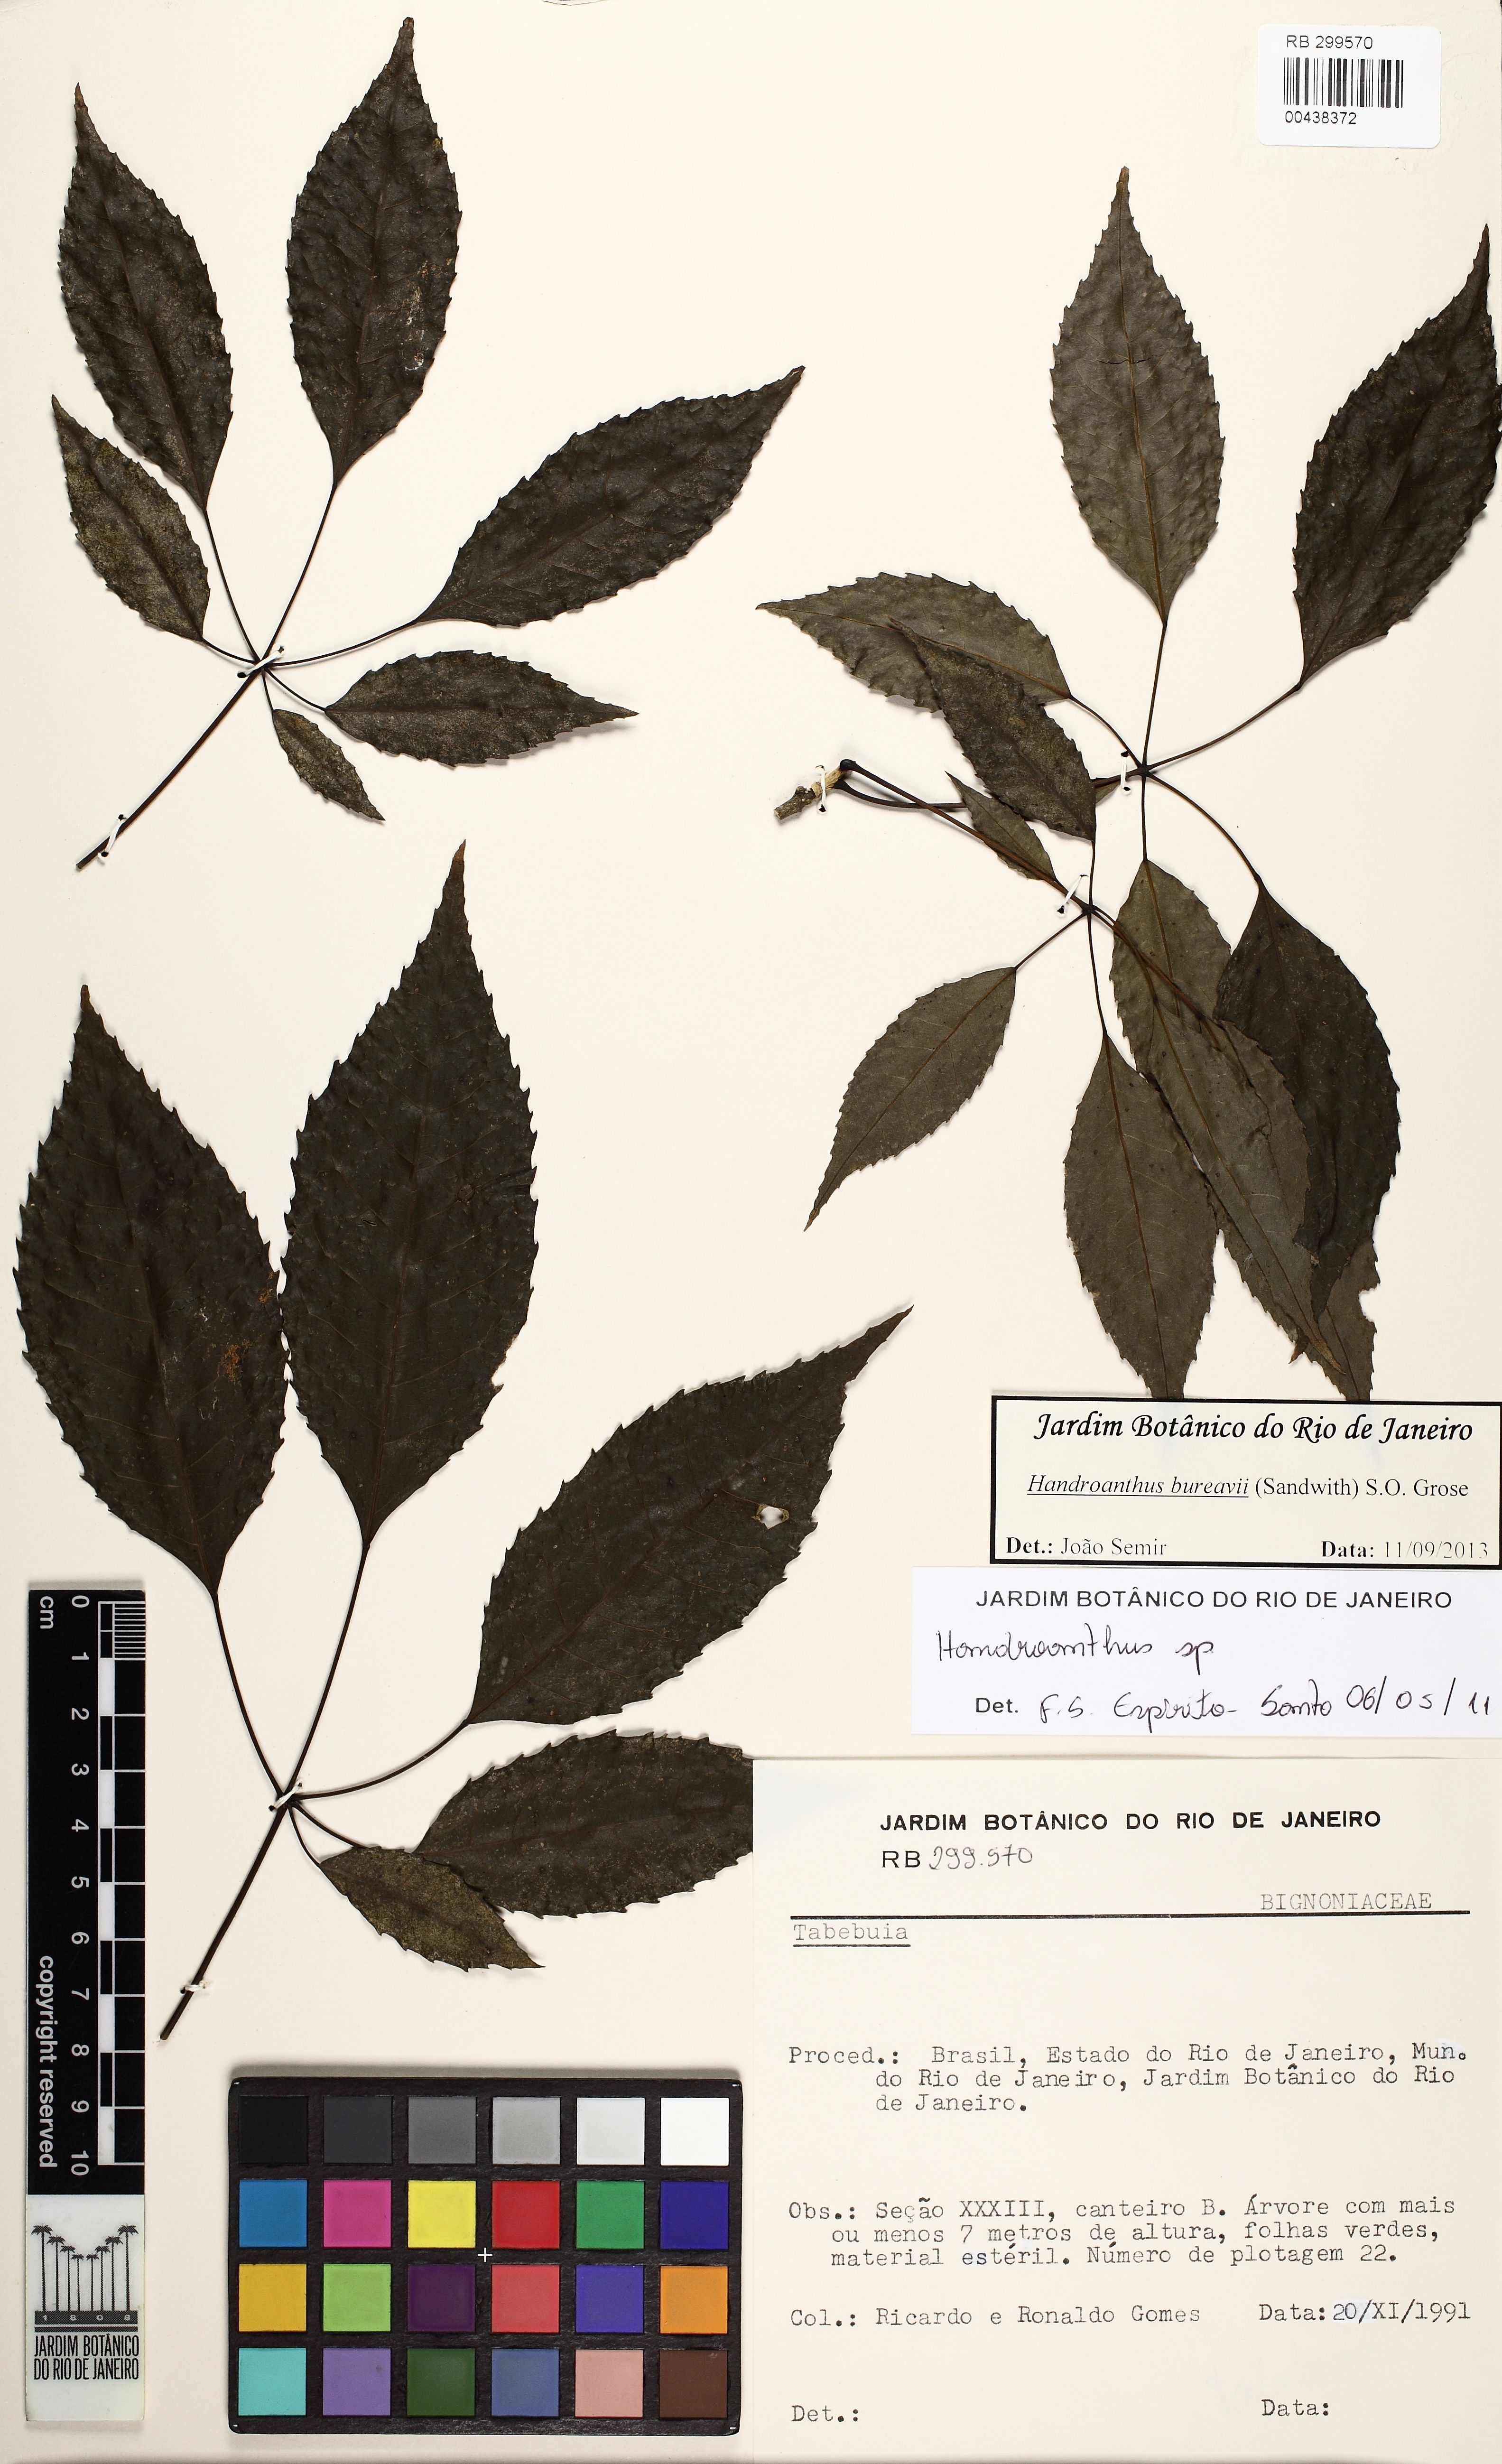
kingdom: Plantae
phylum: Tracheophyta
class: Magnoliopsida
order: Lamiales
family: Bignoniaceae
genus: Handroanthus
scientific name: Handroanthus bureavii
